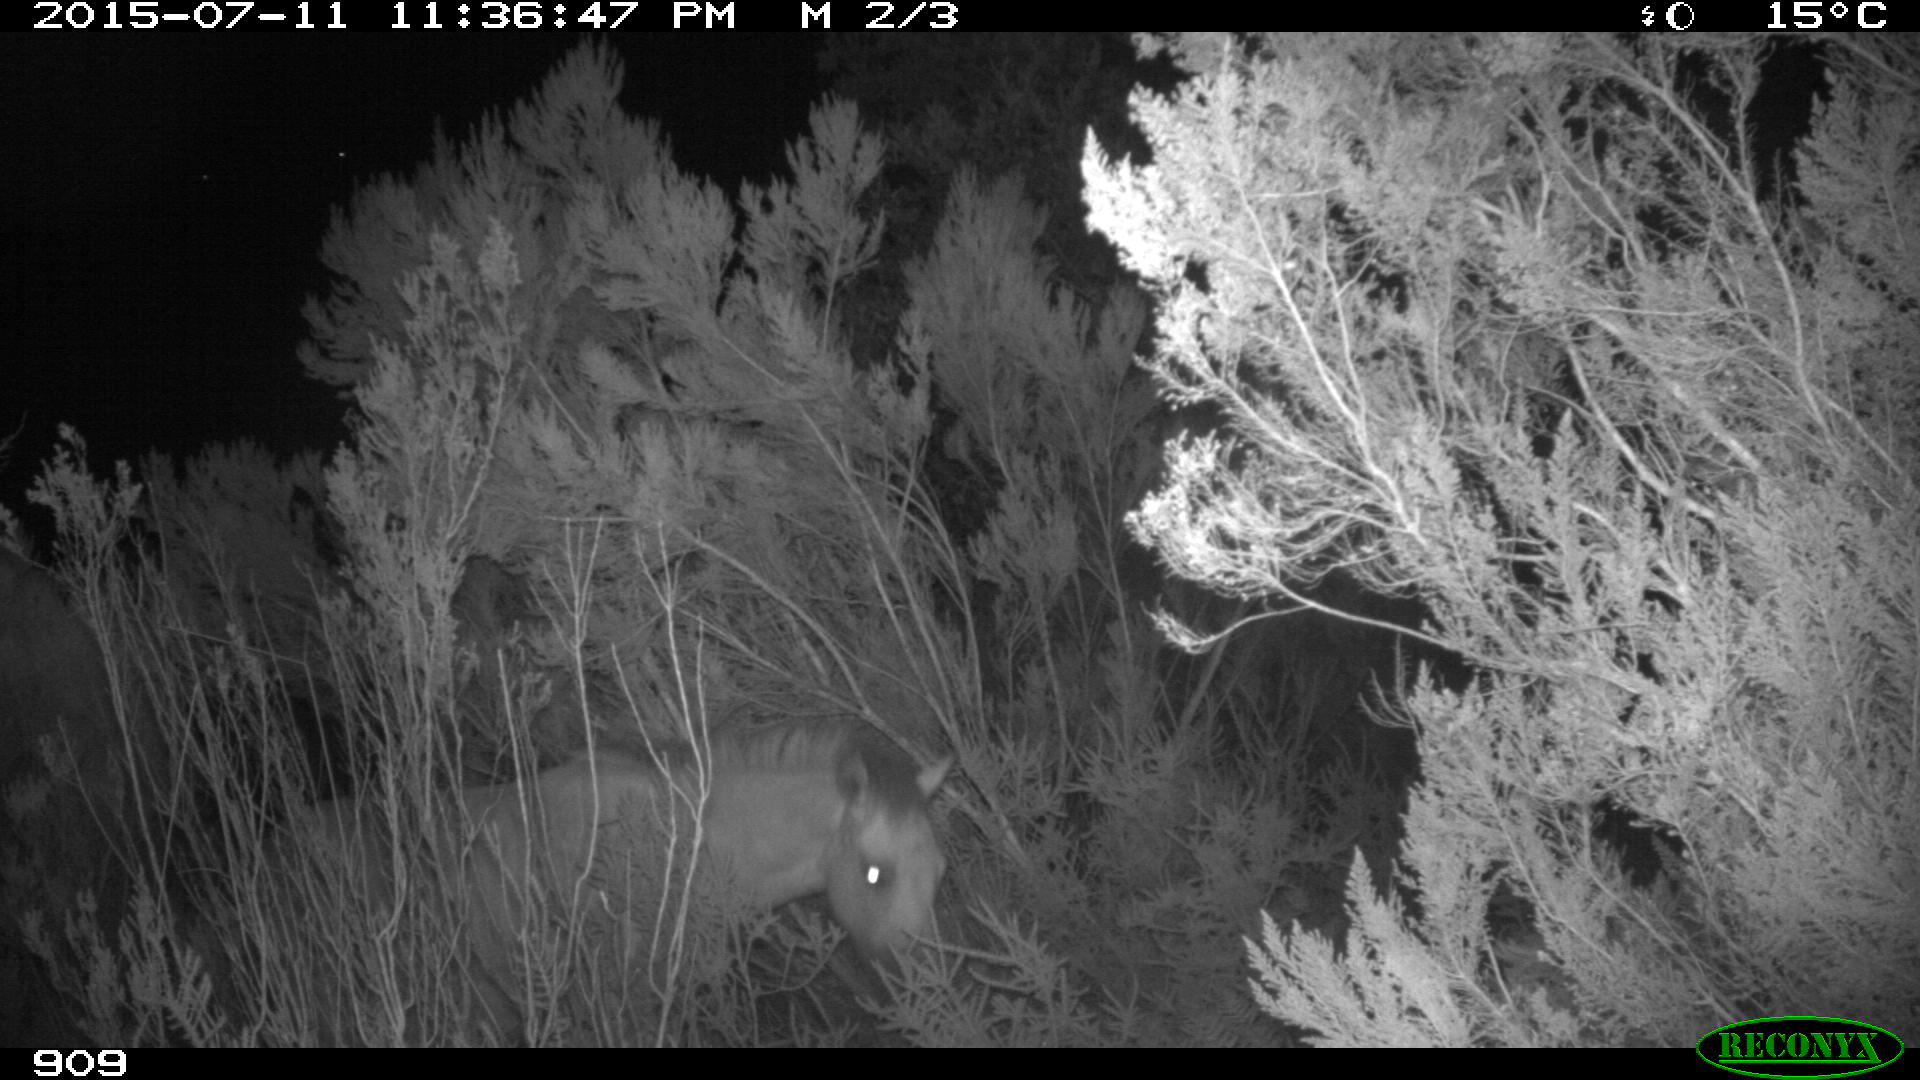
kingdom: Animalia
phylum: Chordata
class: Mammalia
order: Perissodactyla
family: Equidae
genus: Equus
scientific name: Equus caballus
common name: Horse
